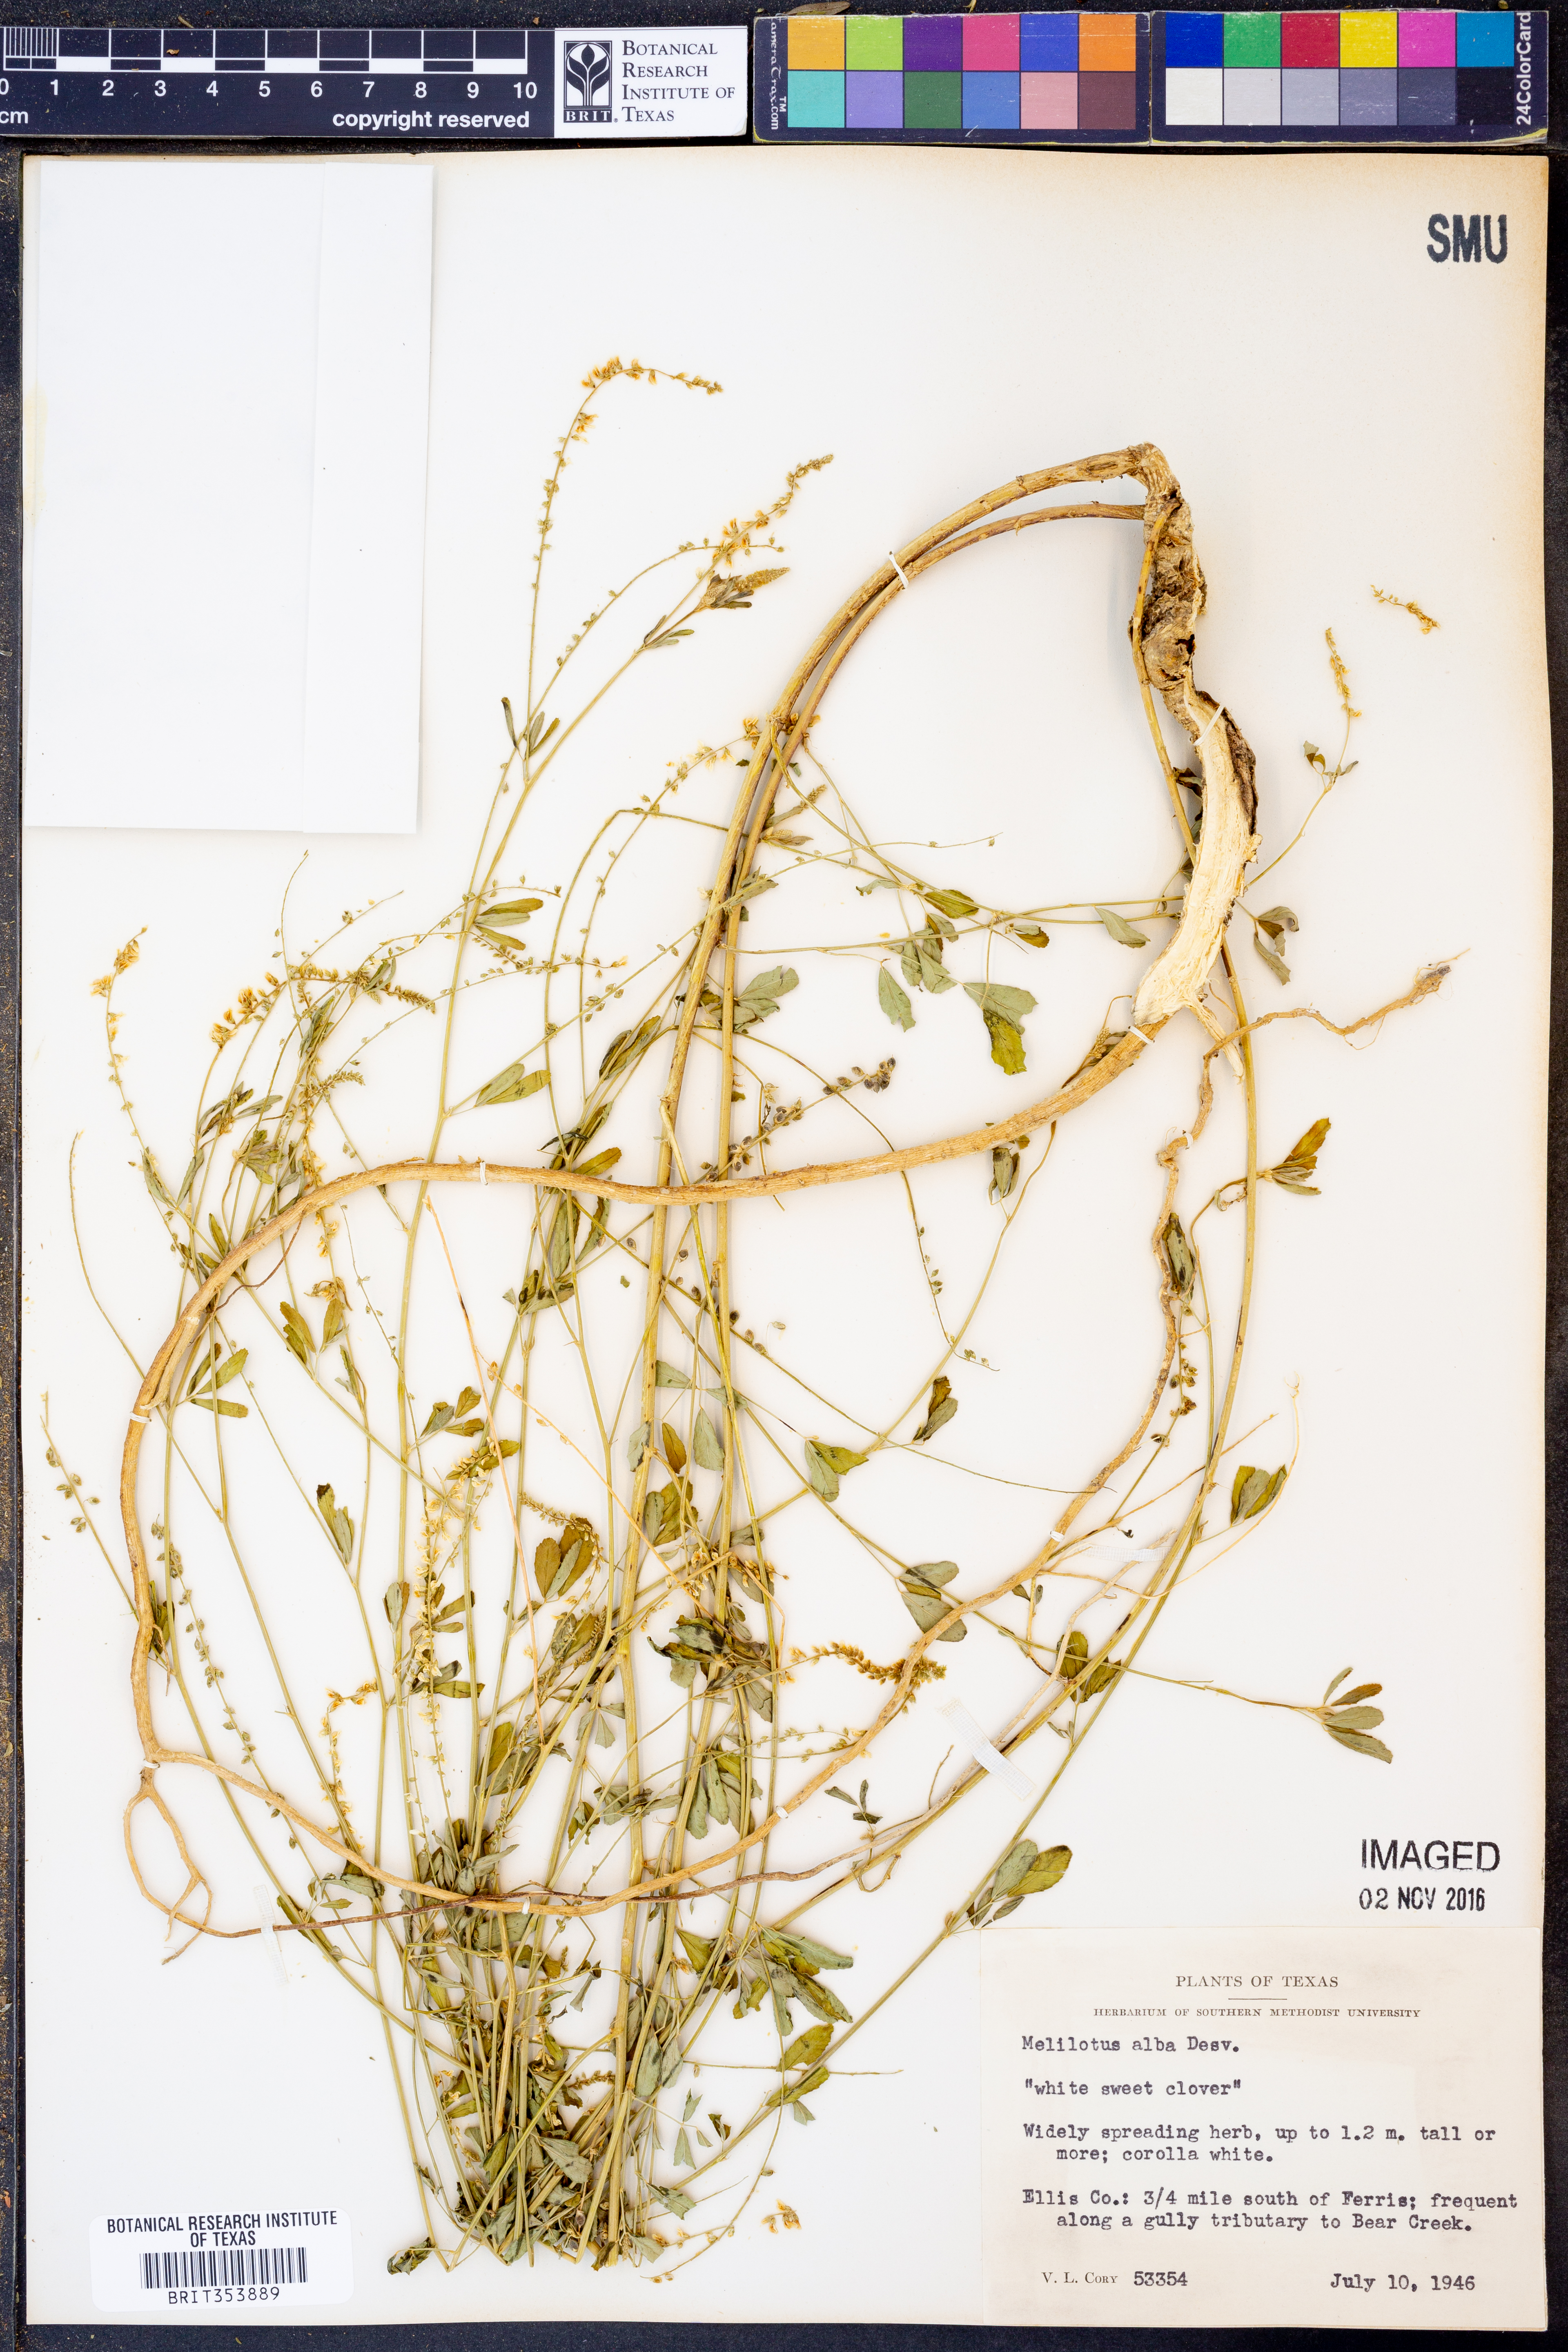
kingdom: Plantae
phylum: Tracheophyta
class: Magnoliopsida
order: Fabales
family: Fabaceae
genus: Melilotus
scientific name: Melilotus albus
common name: White melilot
